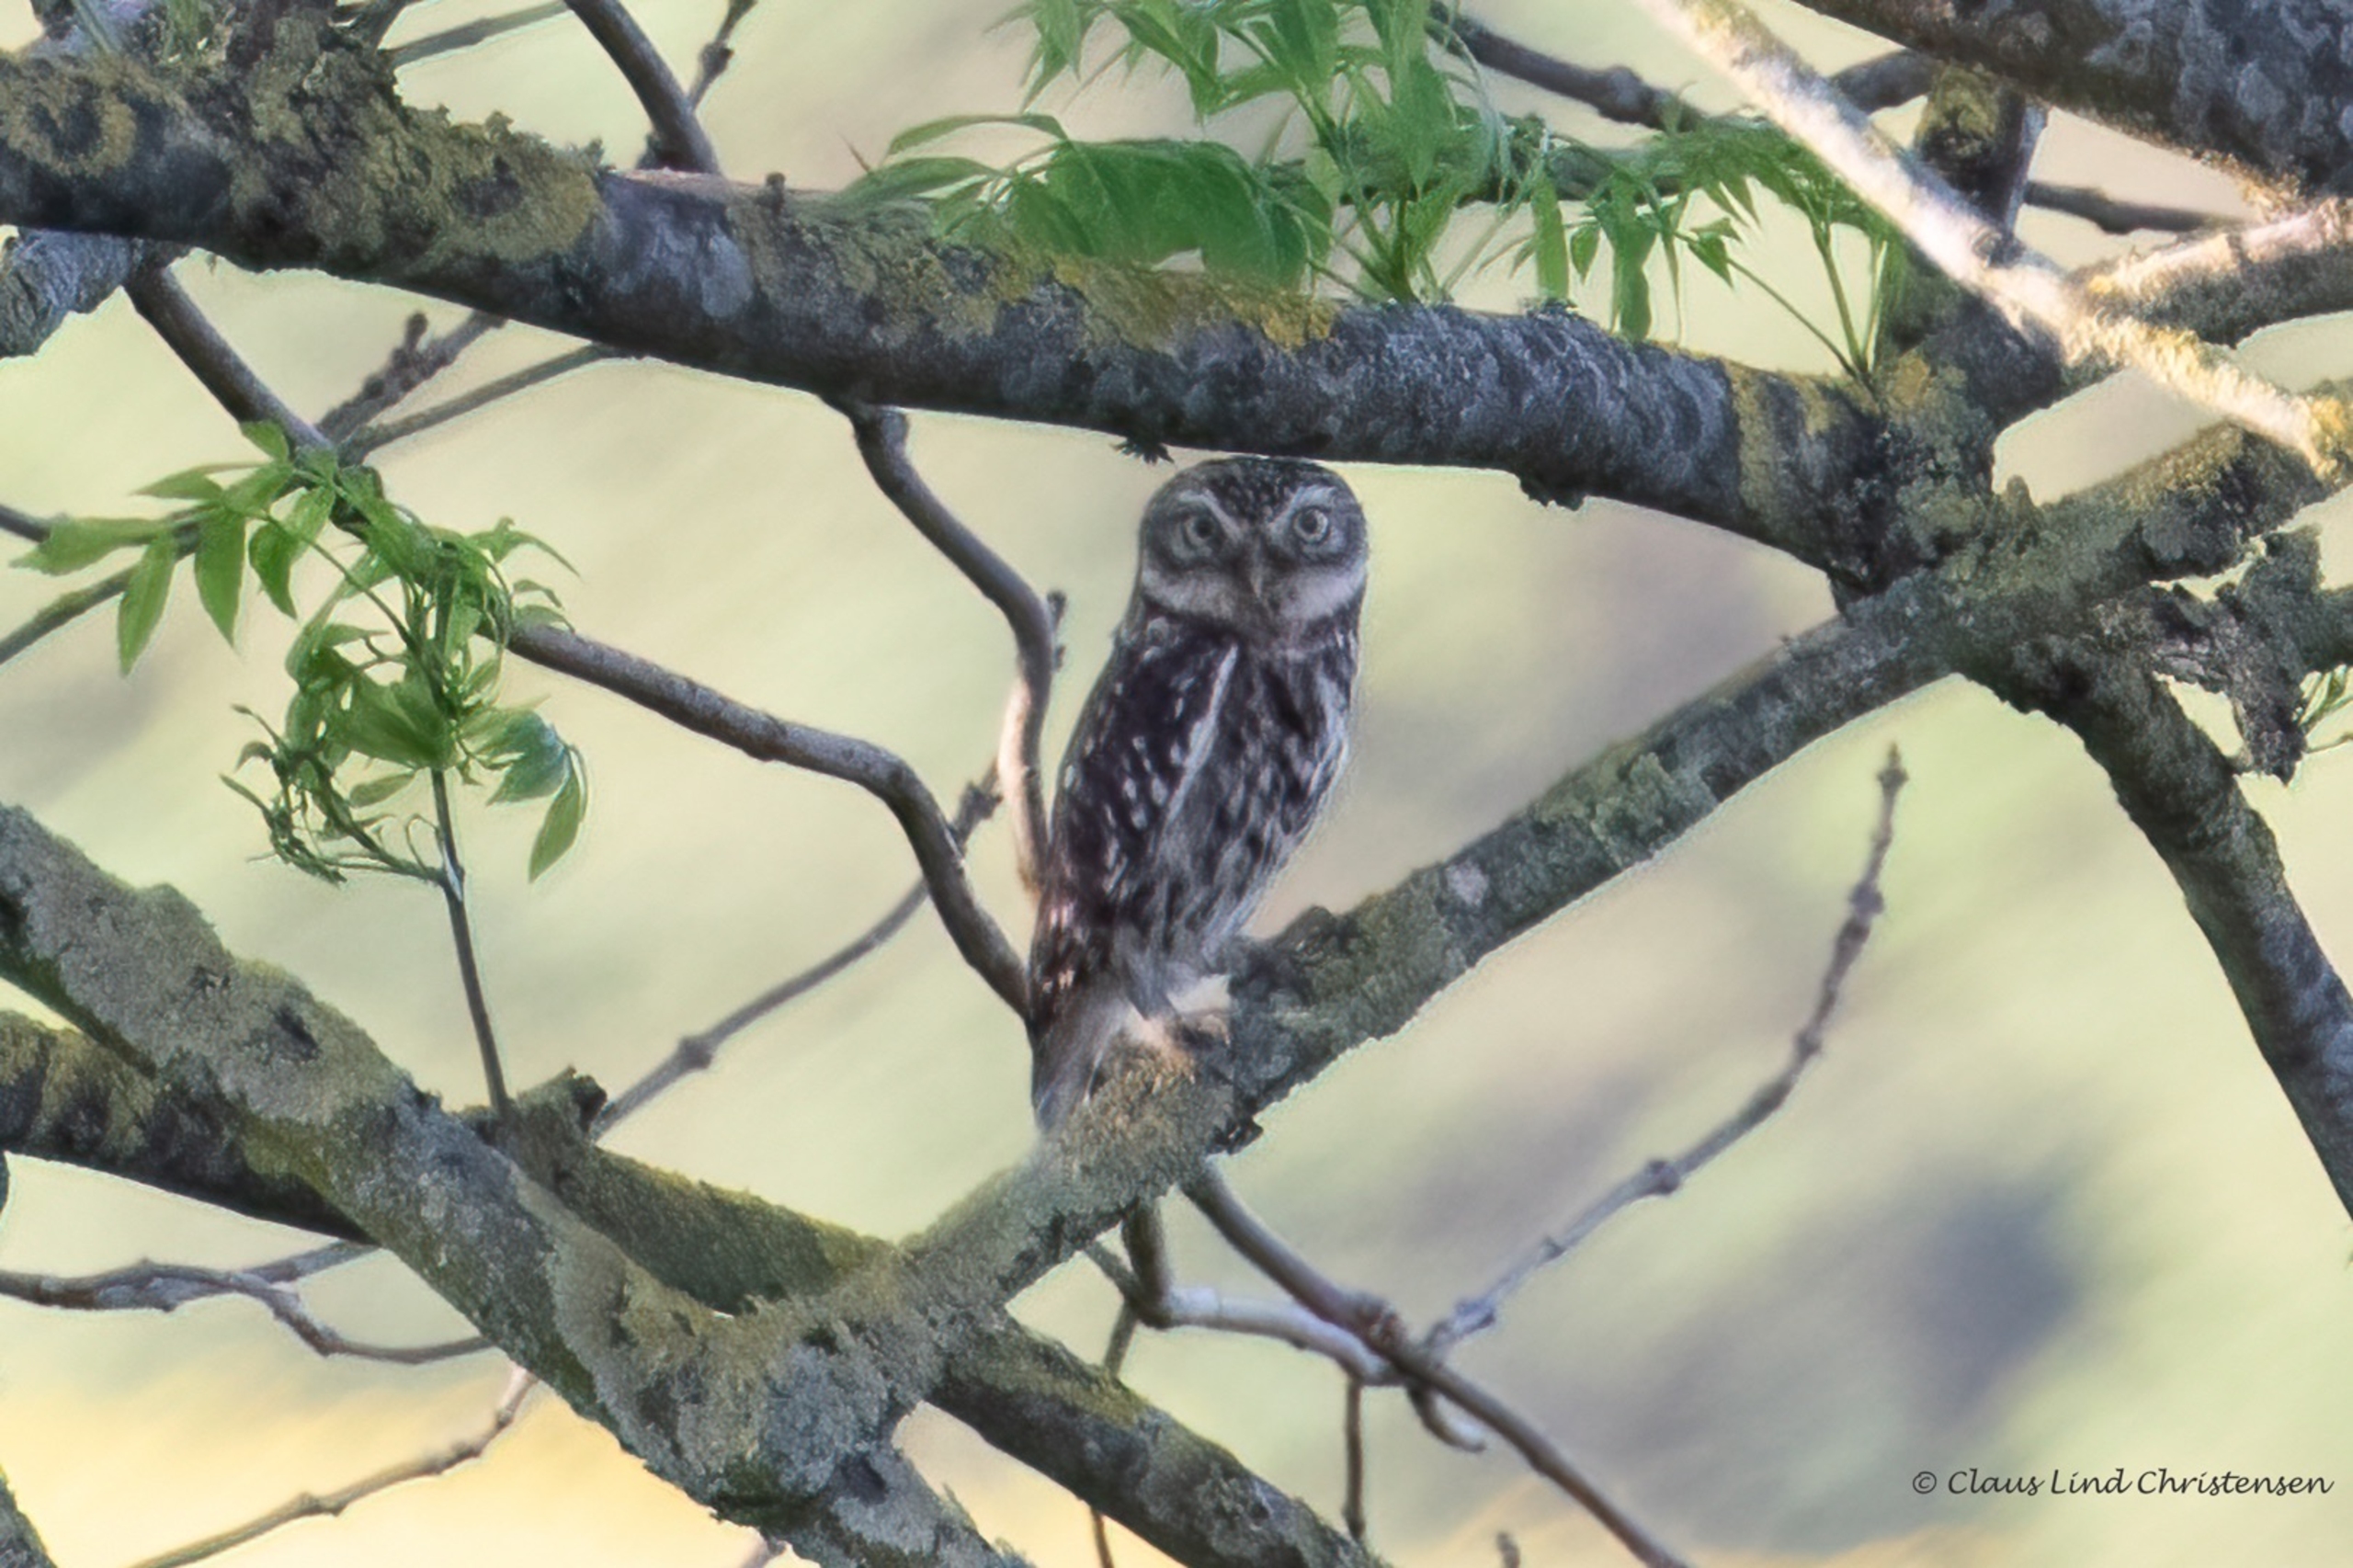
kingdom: Animalia
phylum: Chordata
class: Aves
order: Strigiformes
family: Strigidae
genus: Athene
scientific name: Athene noctua
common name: Kirkeugle
